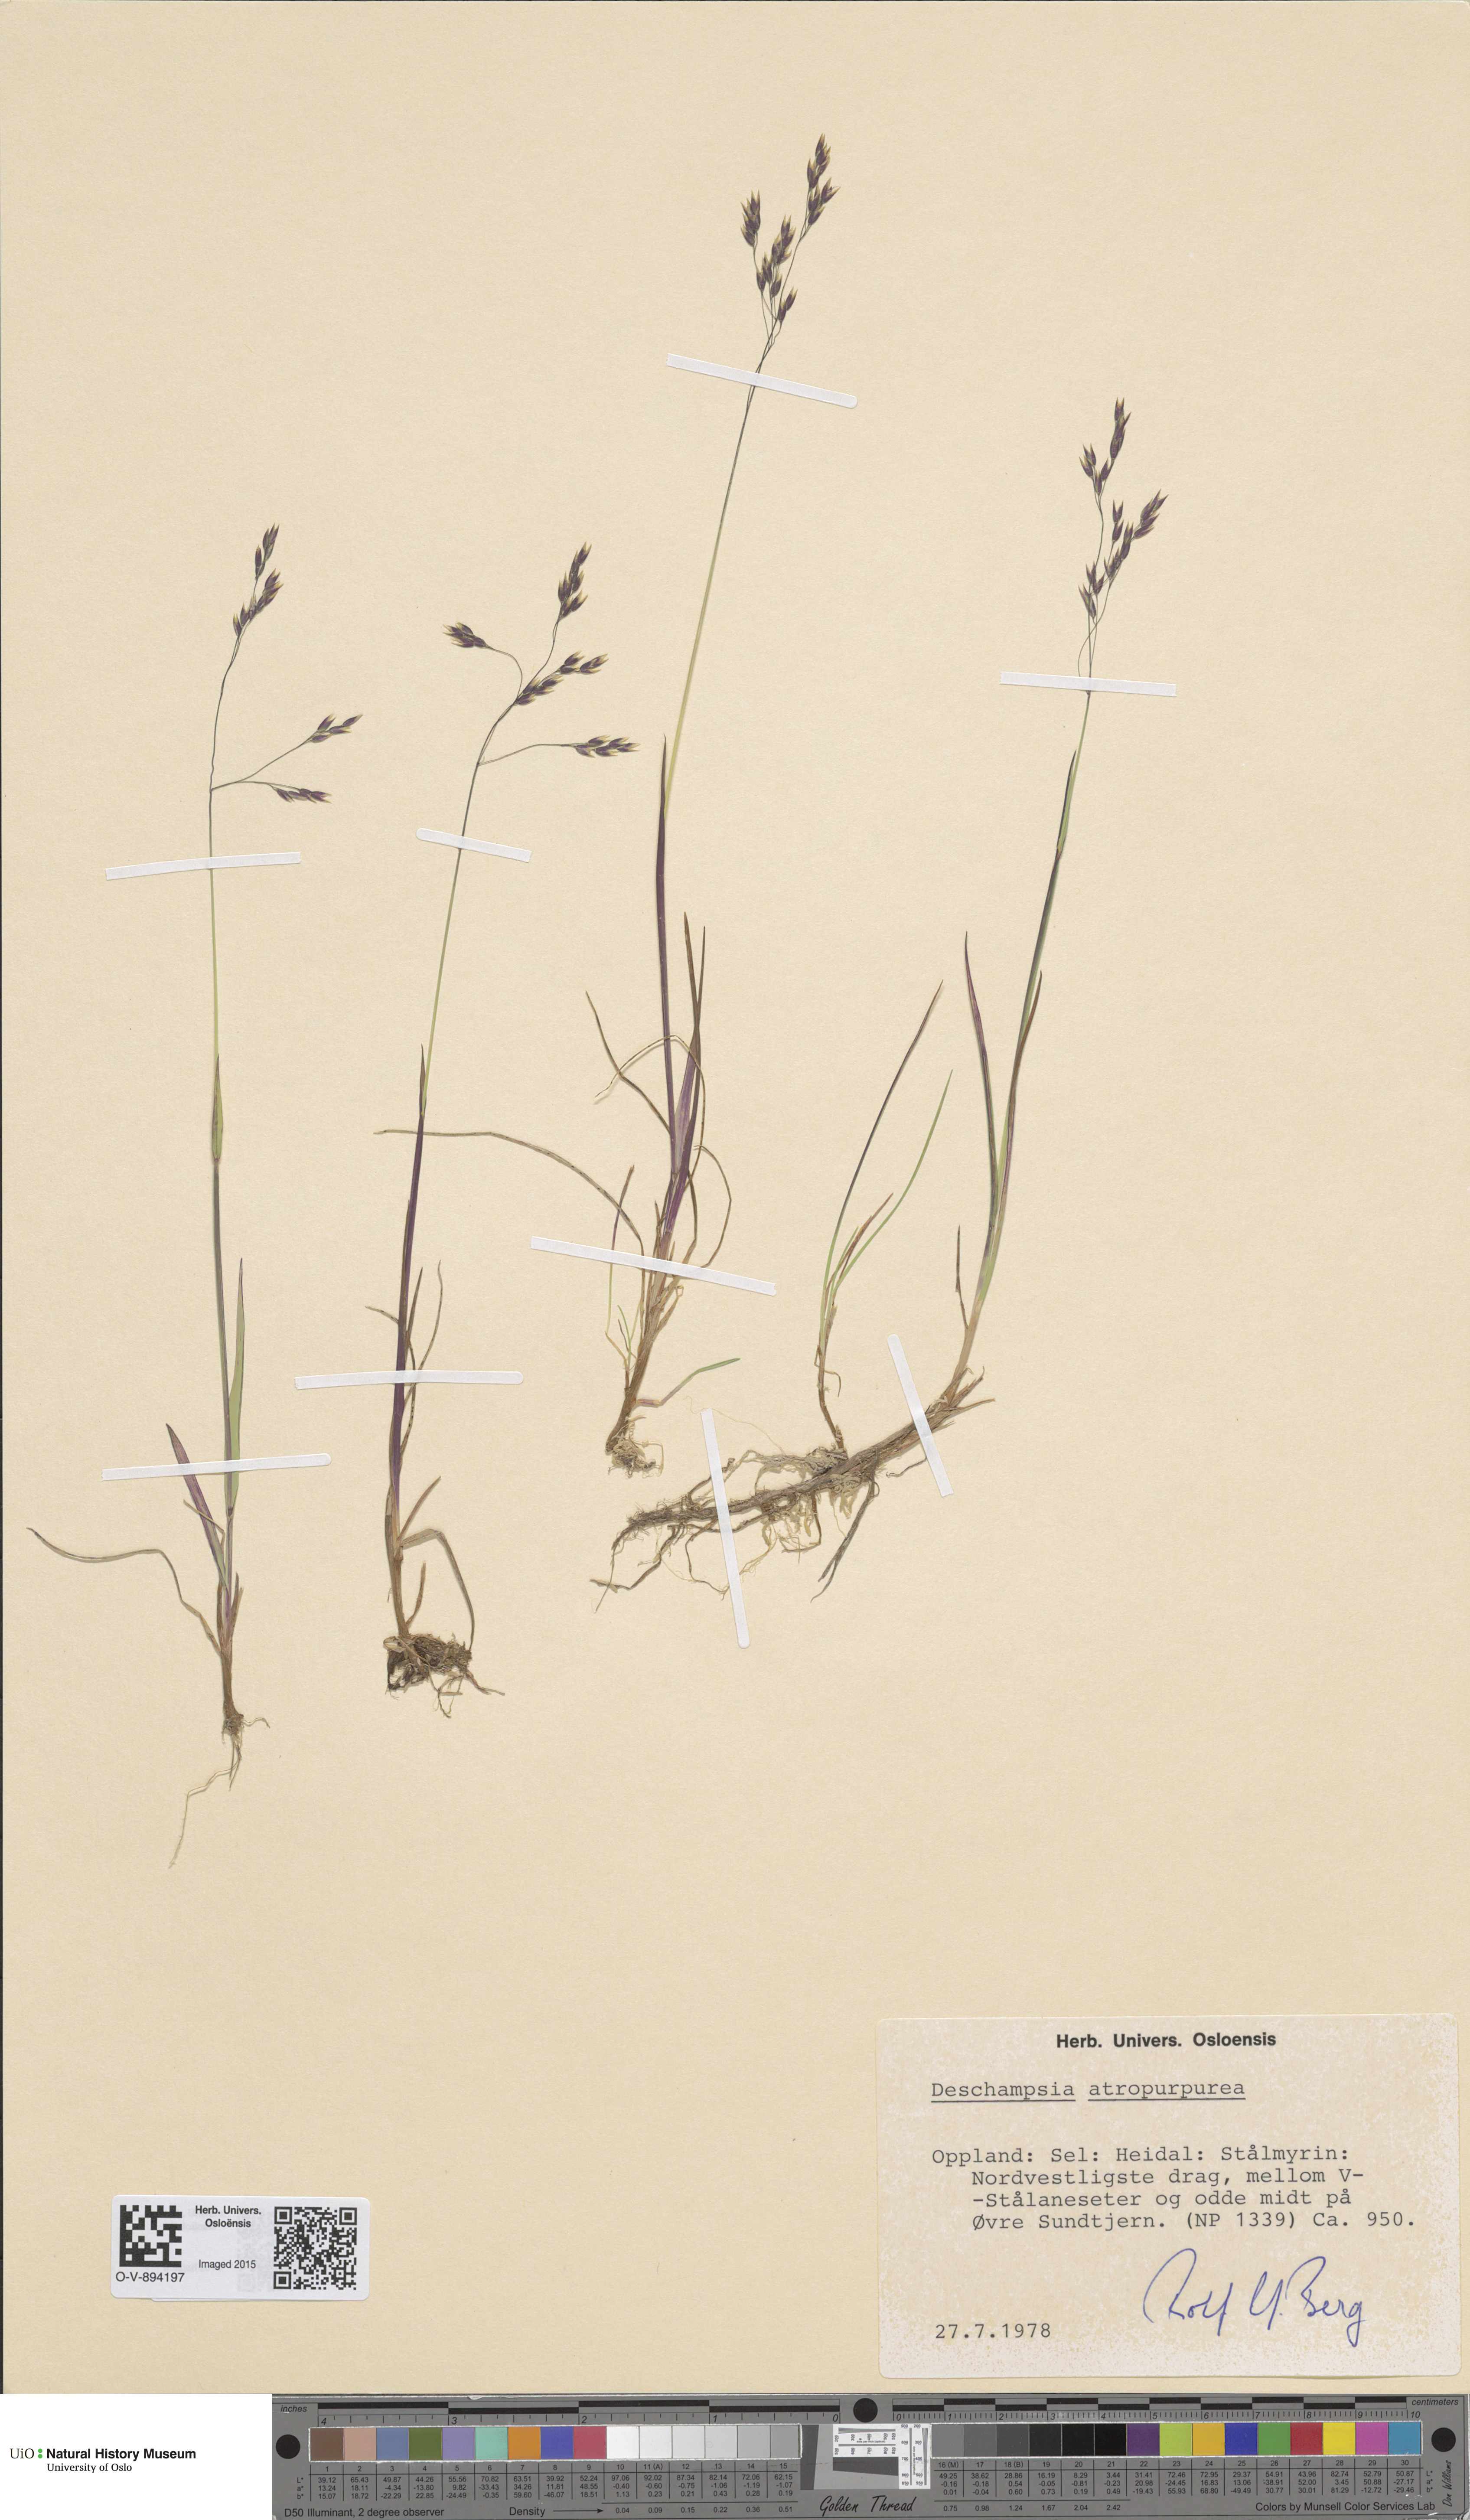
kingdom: Plantae
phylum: Tracheophyta
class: Liliopsida
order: Poales
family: Poaceae
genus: Vahlodea
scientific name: Vahlodea atropurpurea
